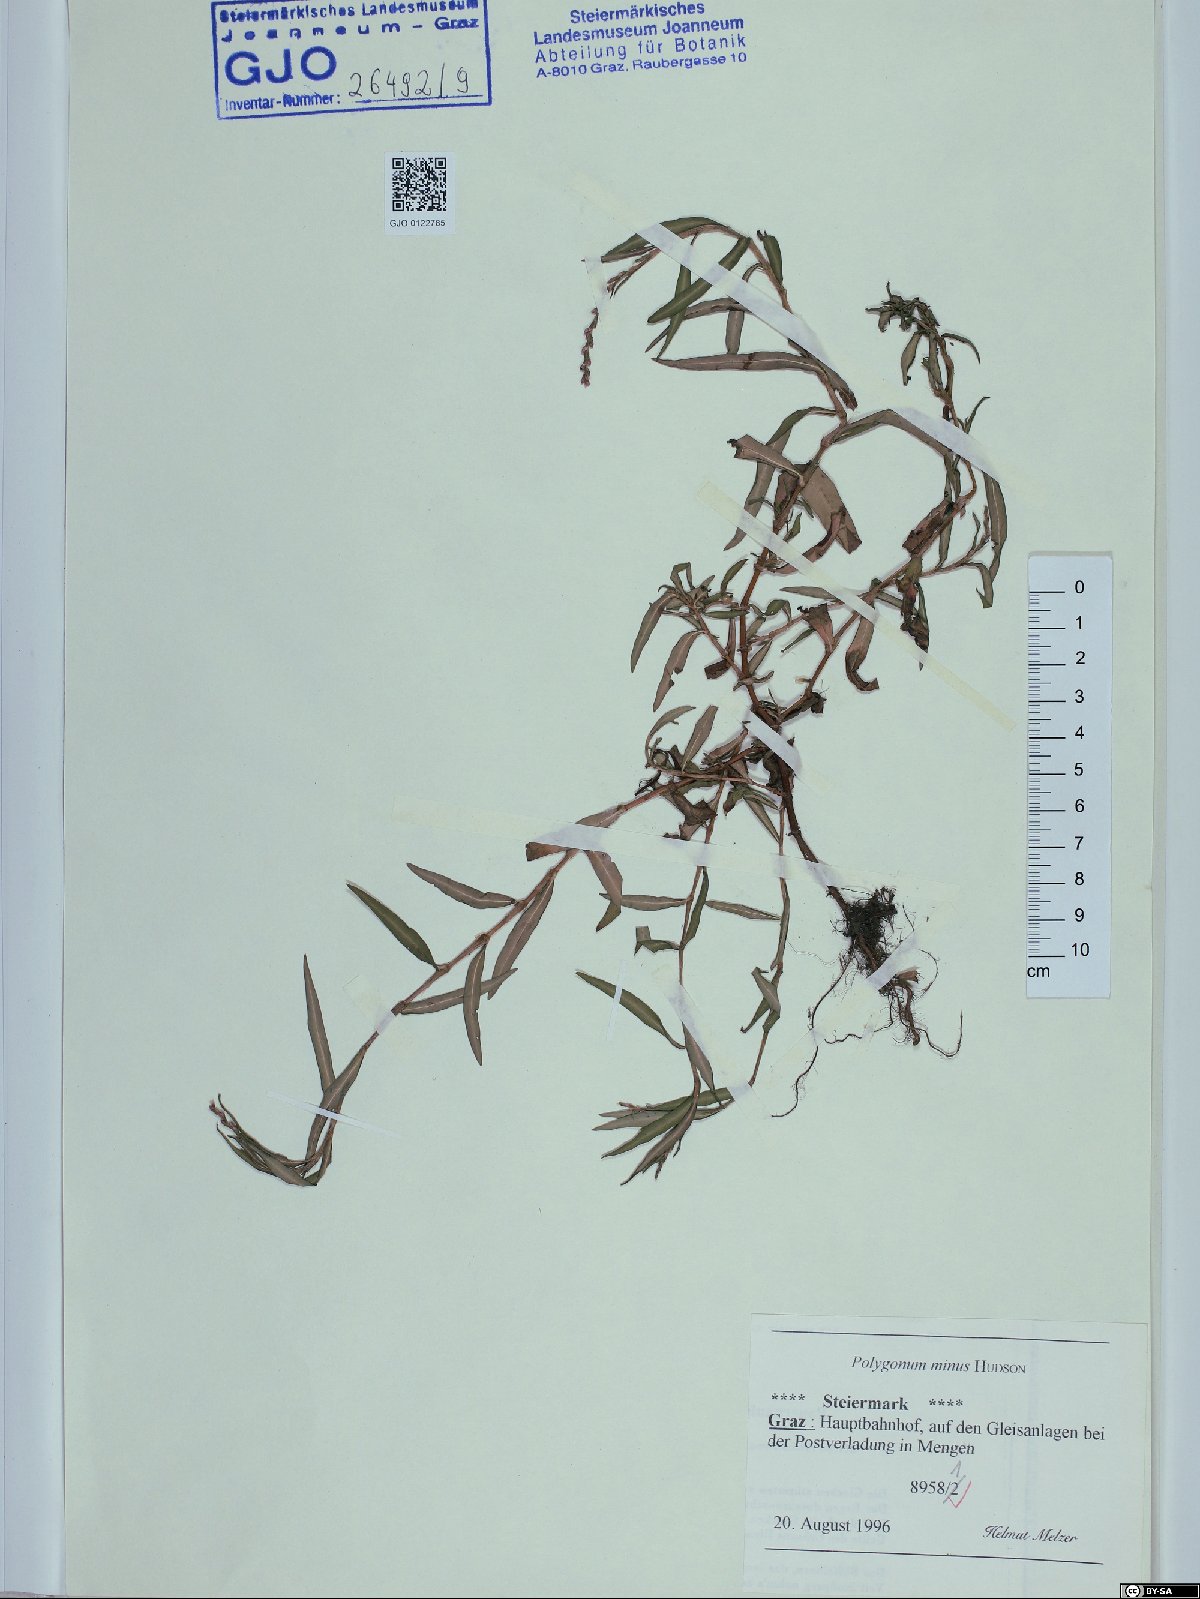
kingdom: Plantae
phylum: Tracheophyta
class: Magnoliopsida
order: Caryophyllales
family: Polygonaceae
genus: Persicaria
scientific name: Persicaria minor
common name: Small water-pepper
